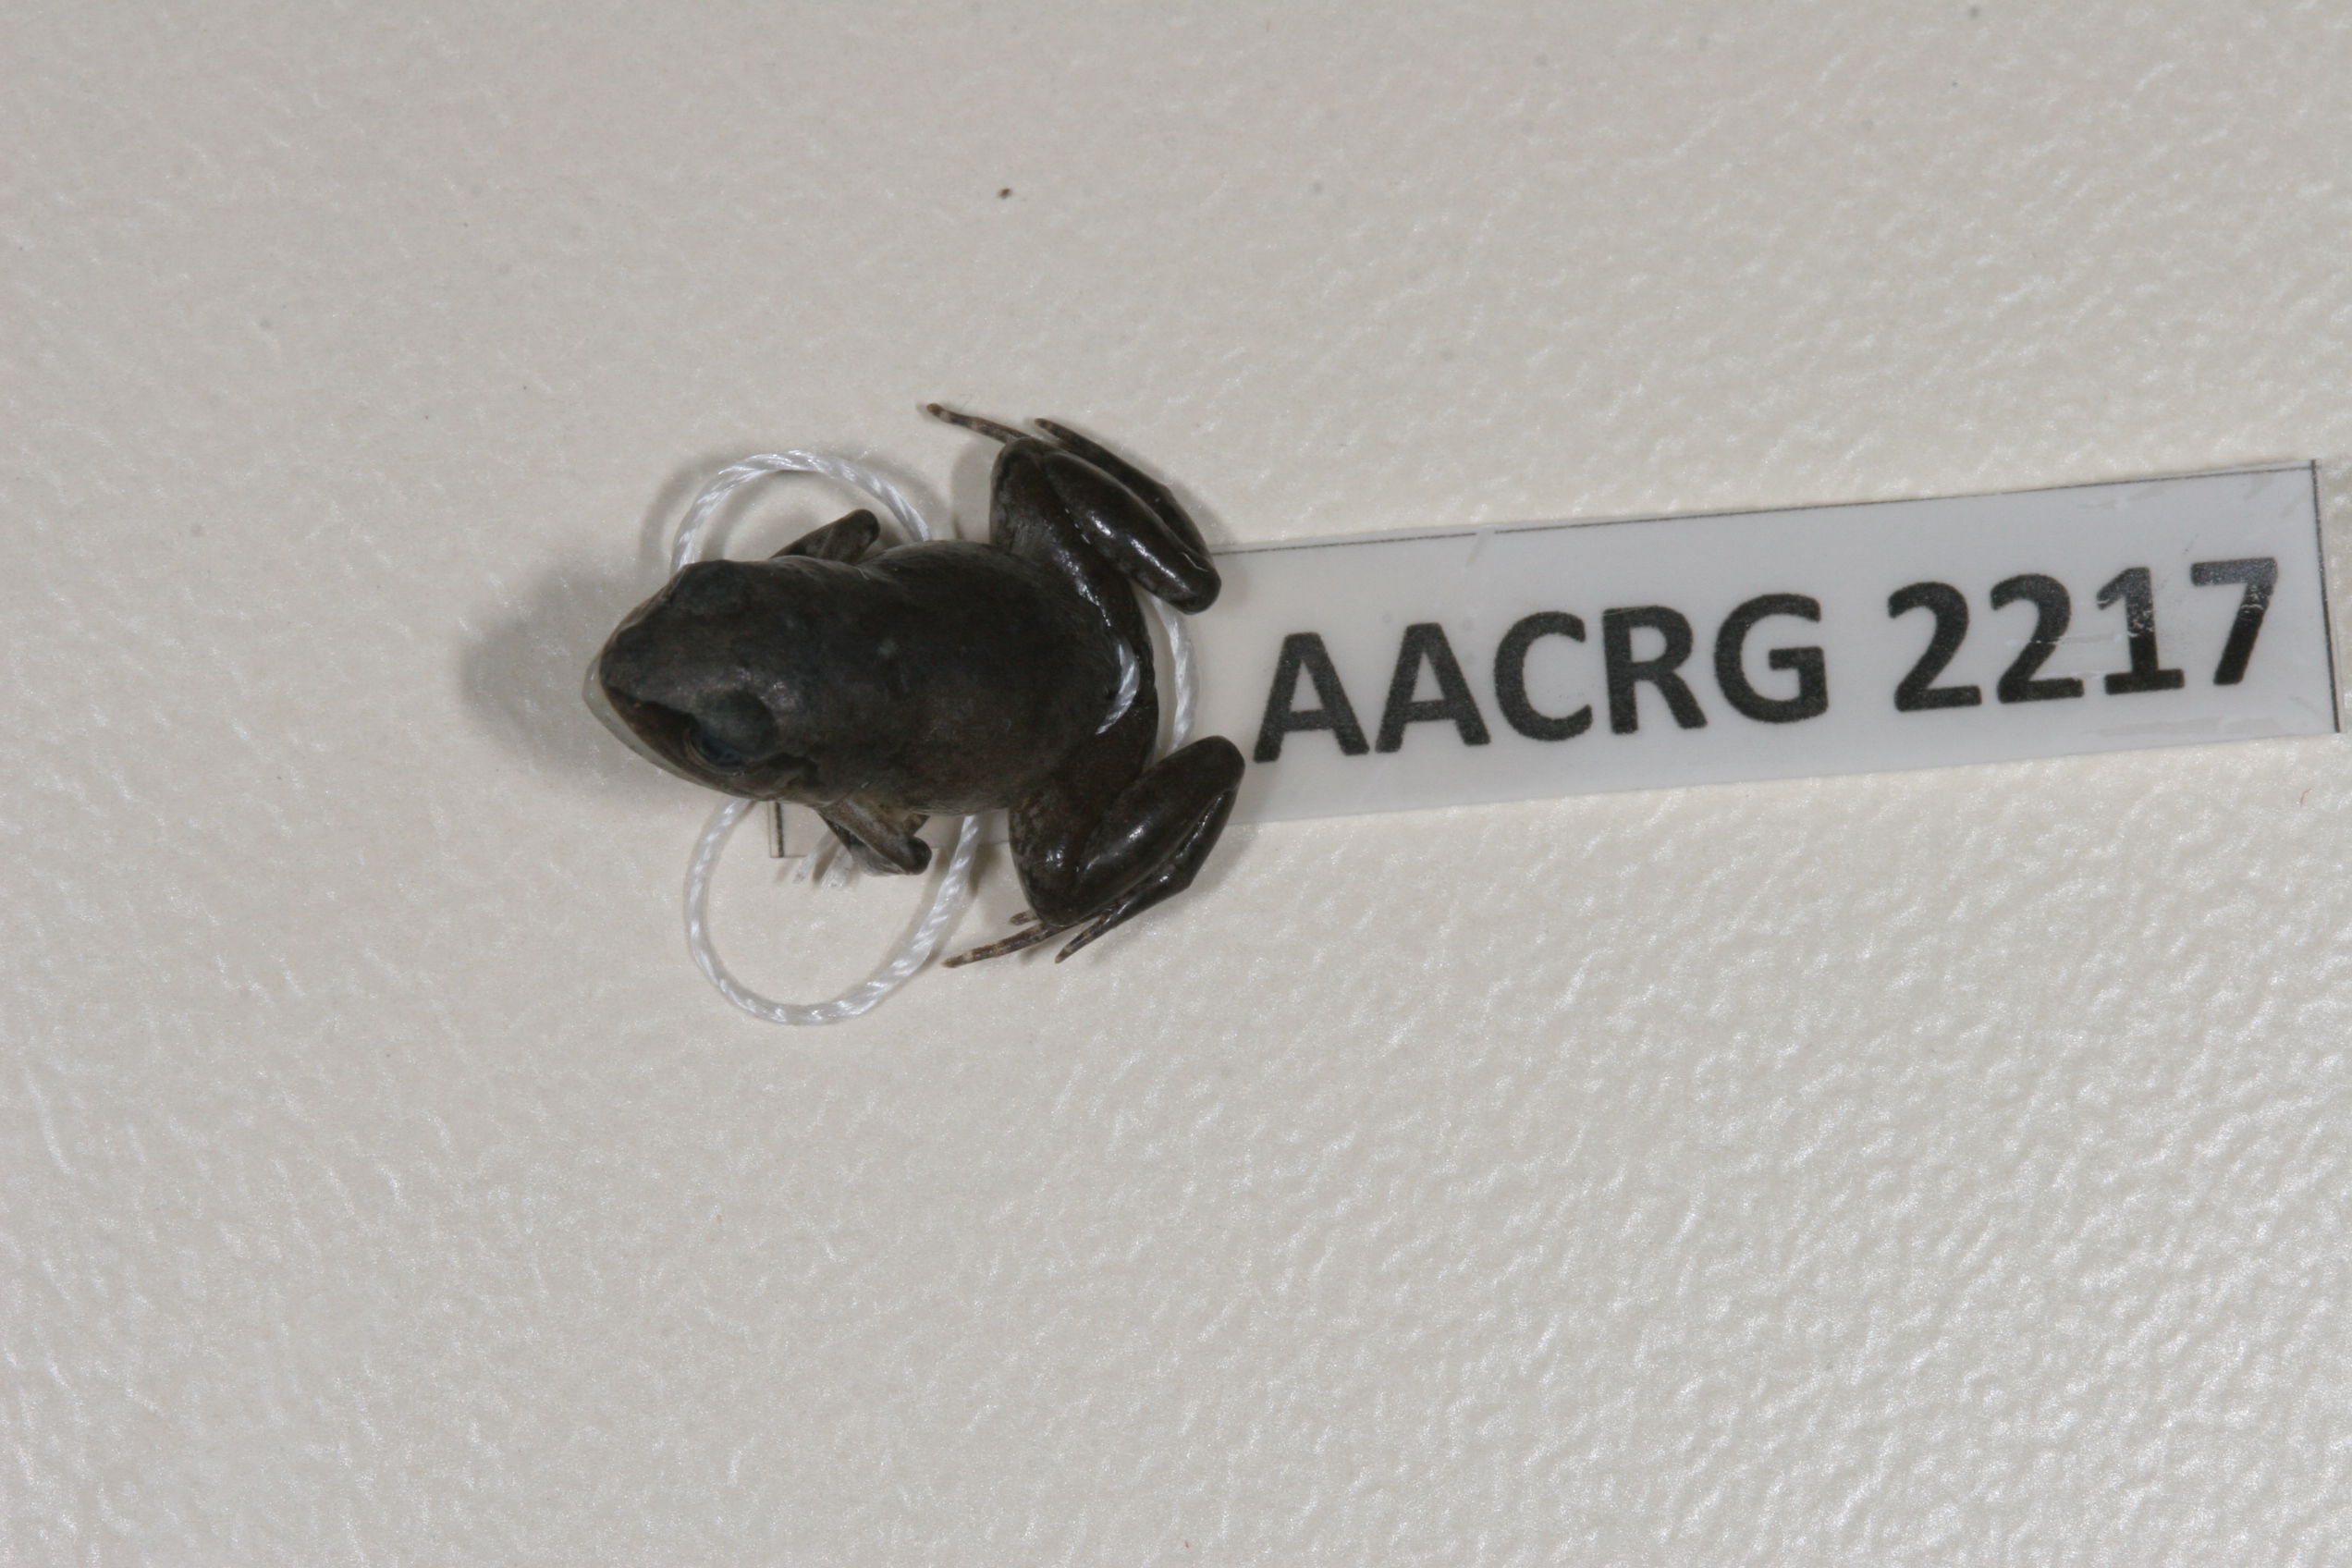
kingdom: Animalia
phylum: Chordata
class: Amphibia
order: Anura
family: Arthroleptidae
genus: Arthroleptis
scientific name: Arthroleptis wahlbergii
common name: Bush squeaker
